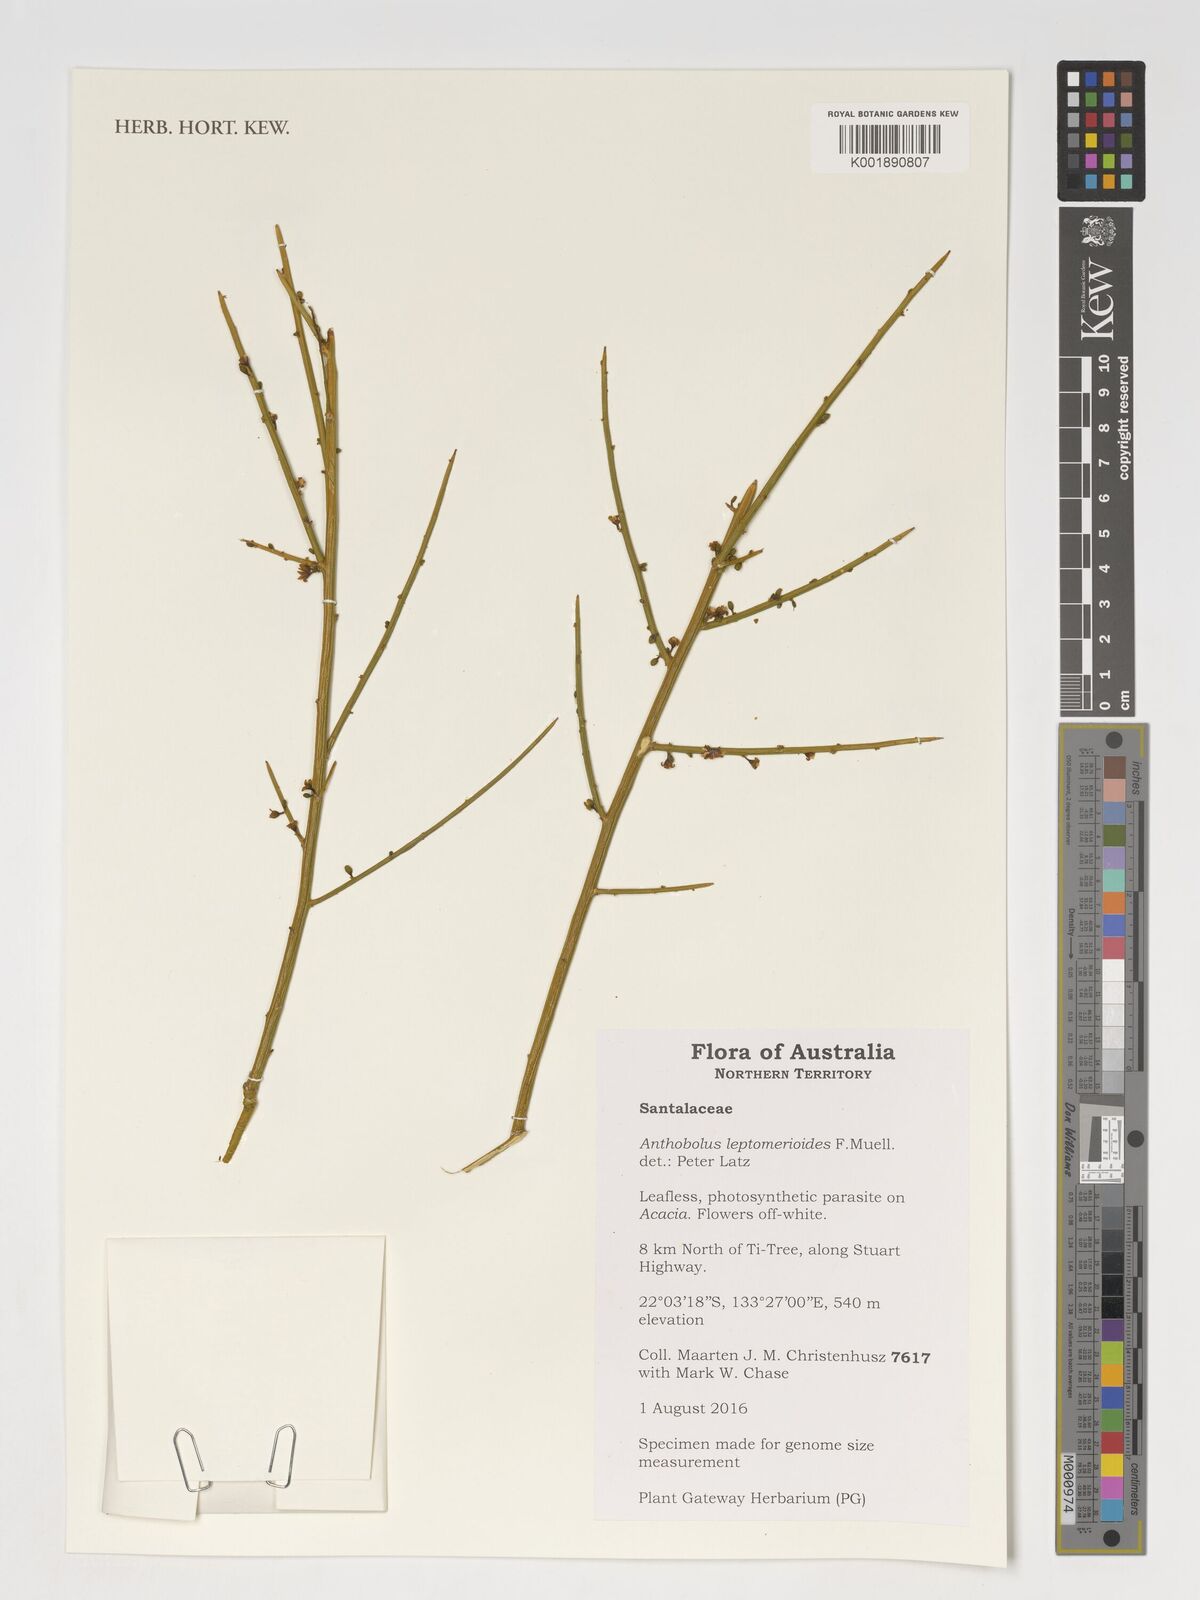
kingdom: Plantae
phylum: Tracheophyta
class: Magnoliopsida
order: Santalales
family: Opiliaceae
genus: Anthobolus
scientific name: Anthobolus leptomeroides
